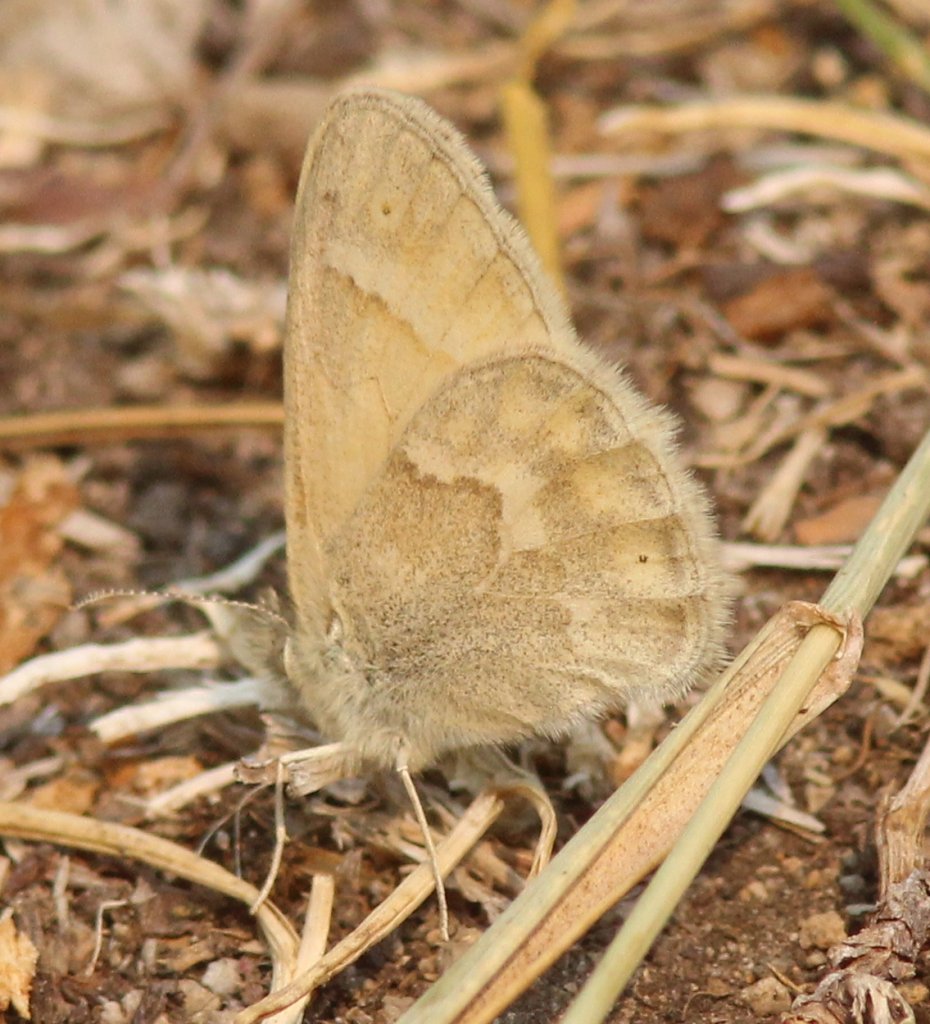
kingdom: Animalia
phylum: Arthropoda
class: Insecta
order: Lepidoptera
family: Nymphalidae
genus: Coenonympha
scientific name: Coenonympha tullia
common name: Large Heath
